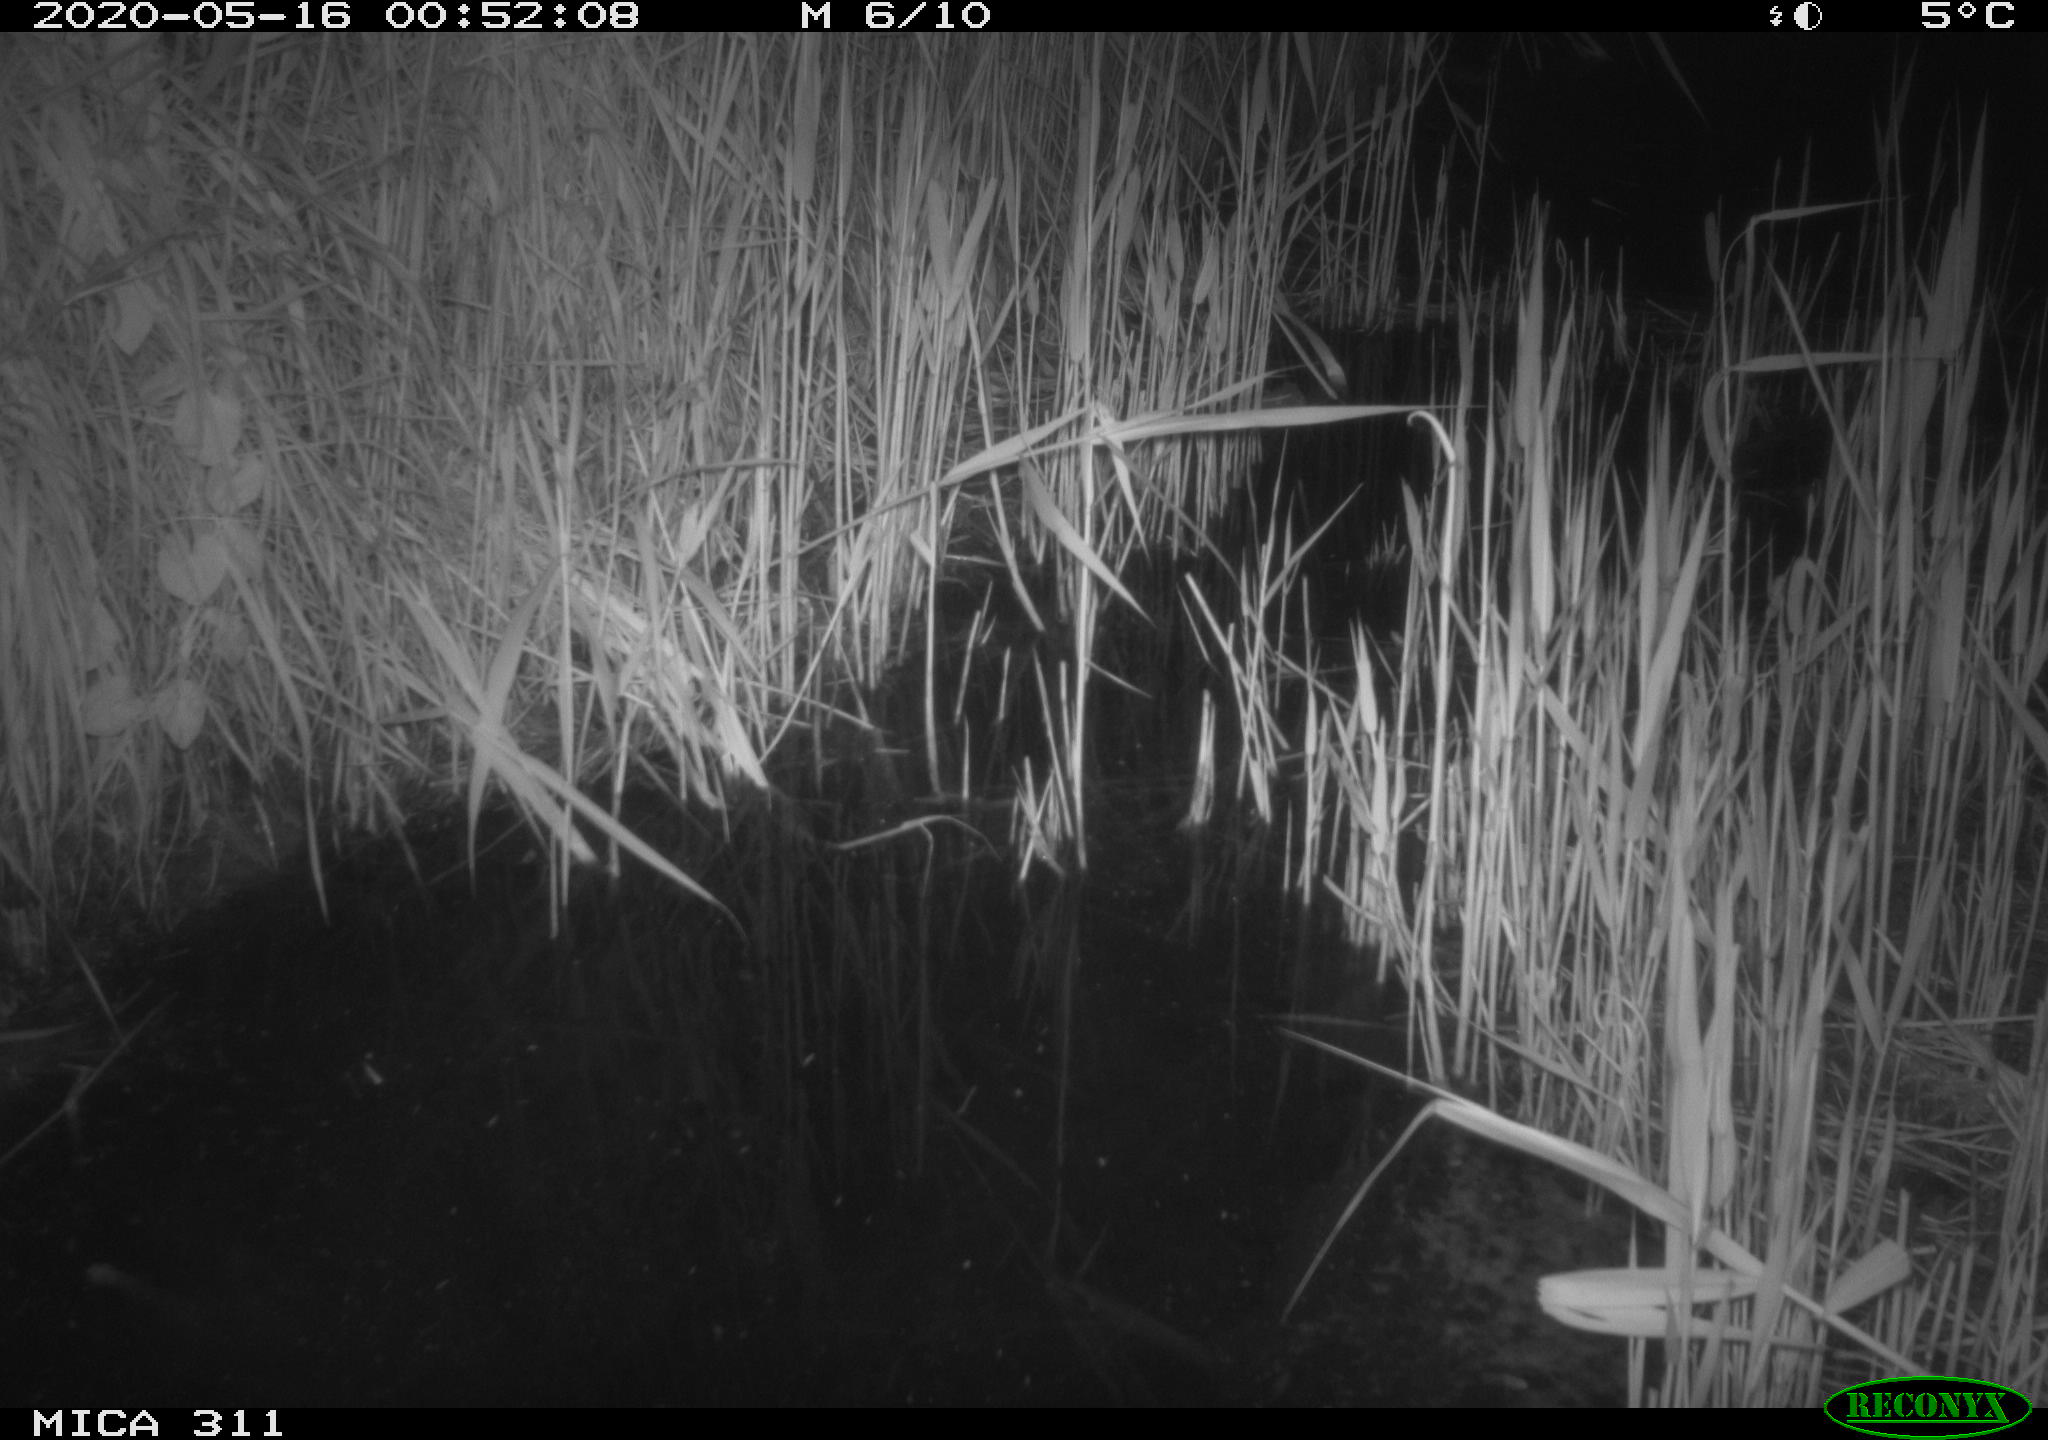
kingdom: Animalia
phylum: Chordata
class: Mammalia
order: Rodentia
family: Muridae
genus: Rattus
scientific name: Rattus norvegicus
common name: Brown rat
